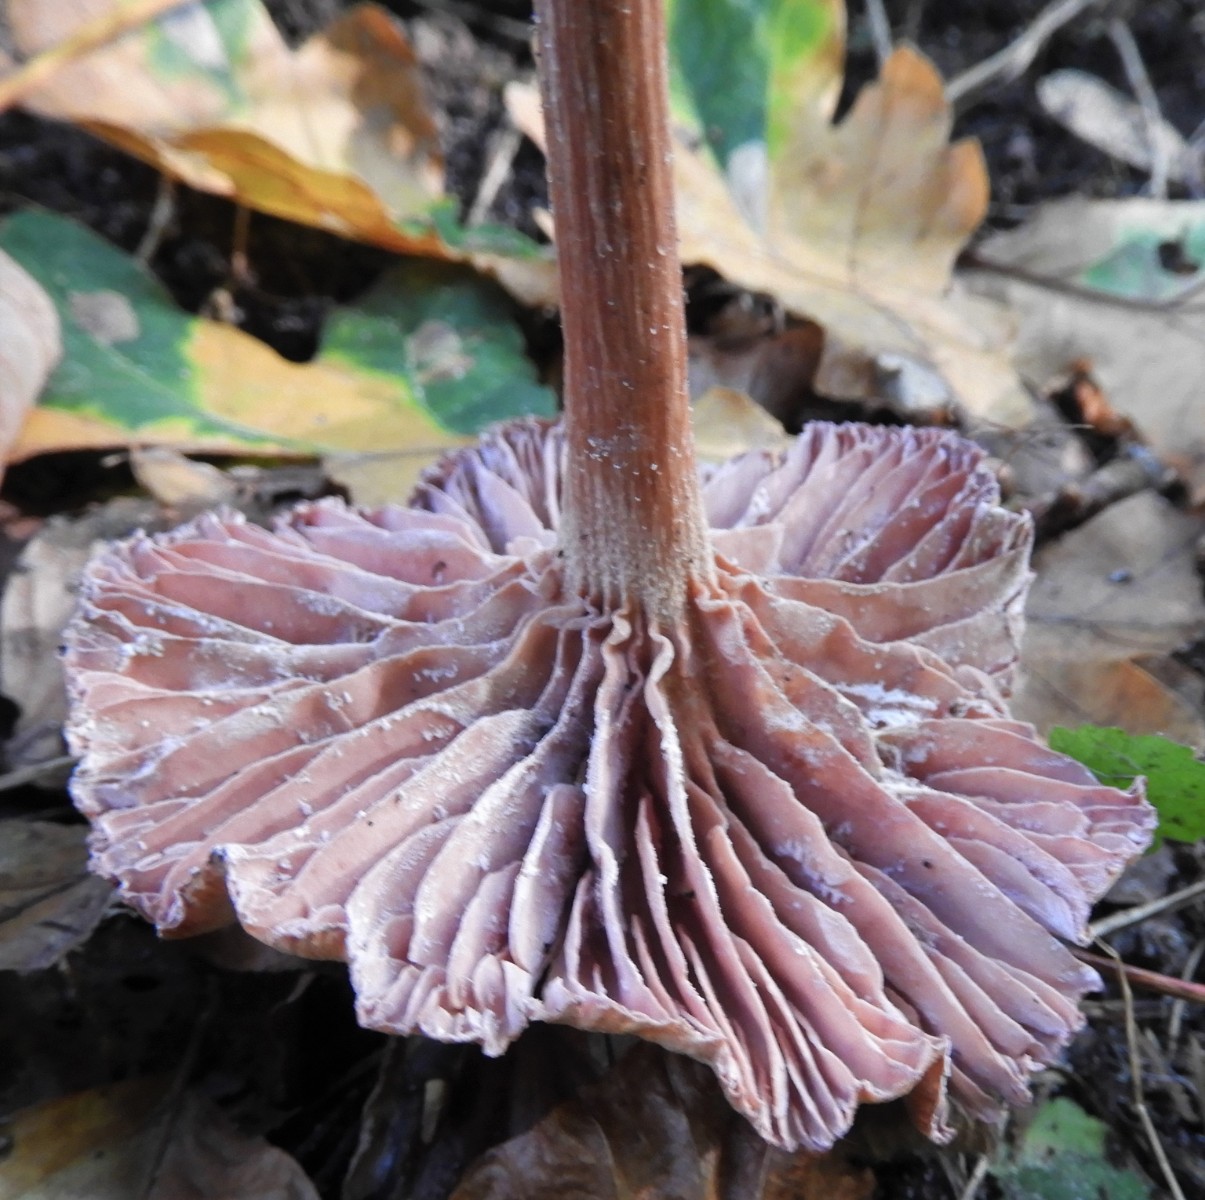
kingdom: Fungi
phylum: Basidiomycota
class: Agaricomycetes
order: Agaricales
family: Hydnangiaceae
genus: Laccaria
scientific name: Laccaria amethystina
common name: violet ametysthat
